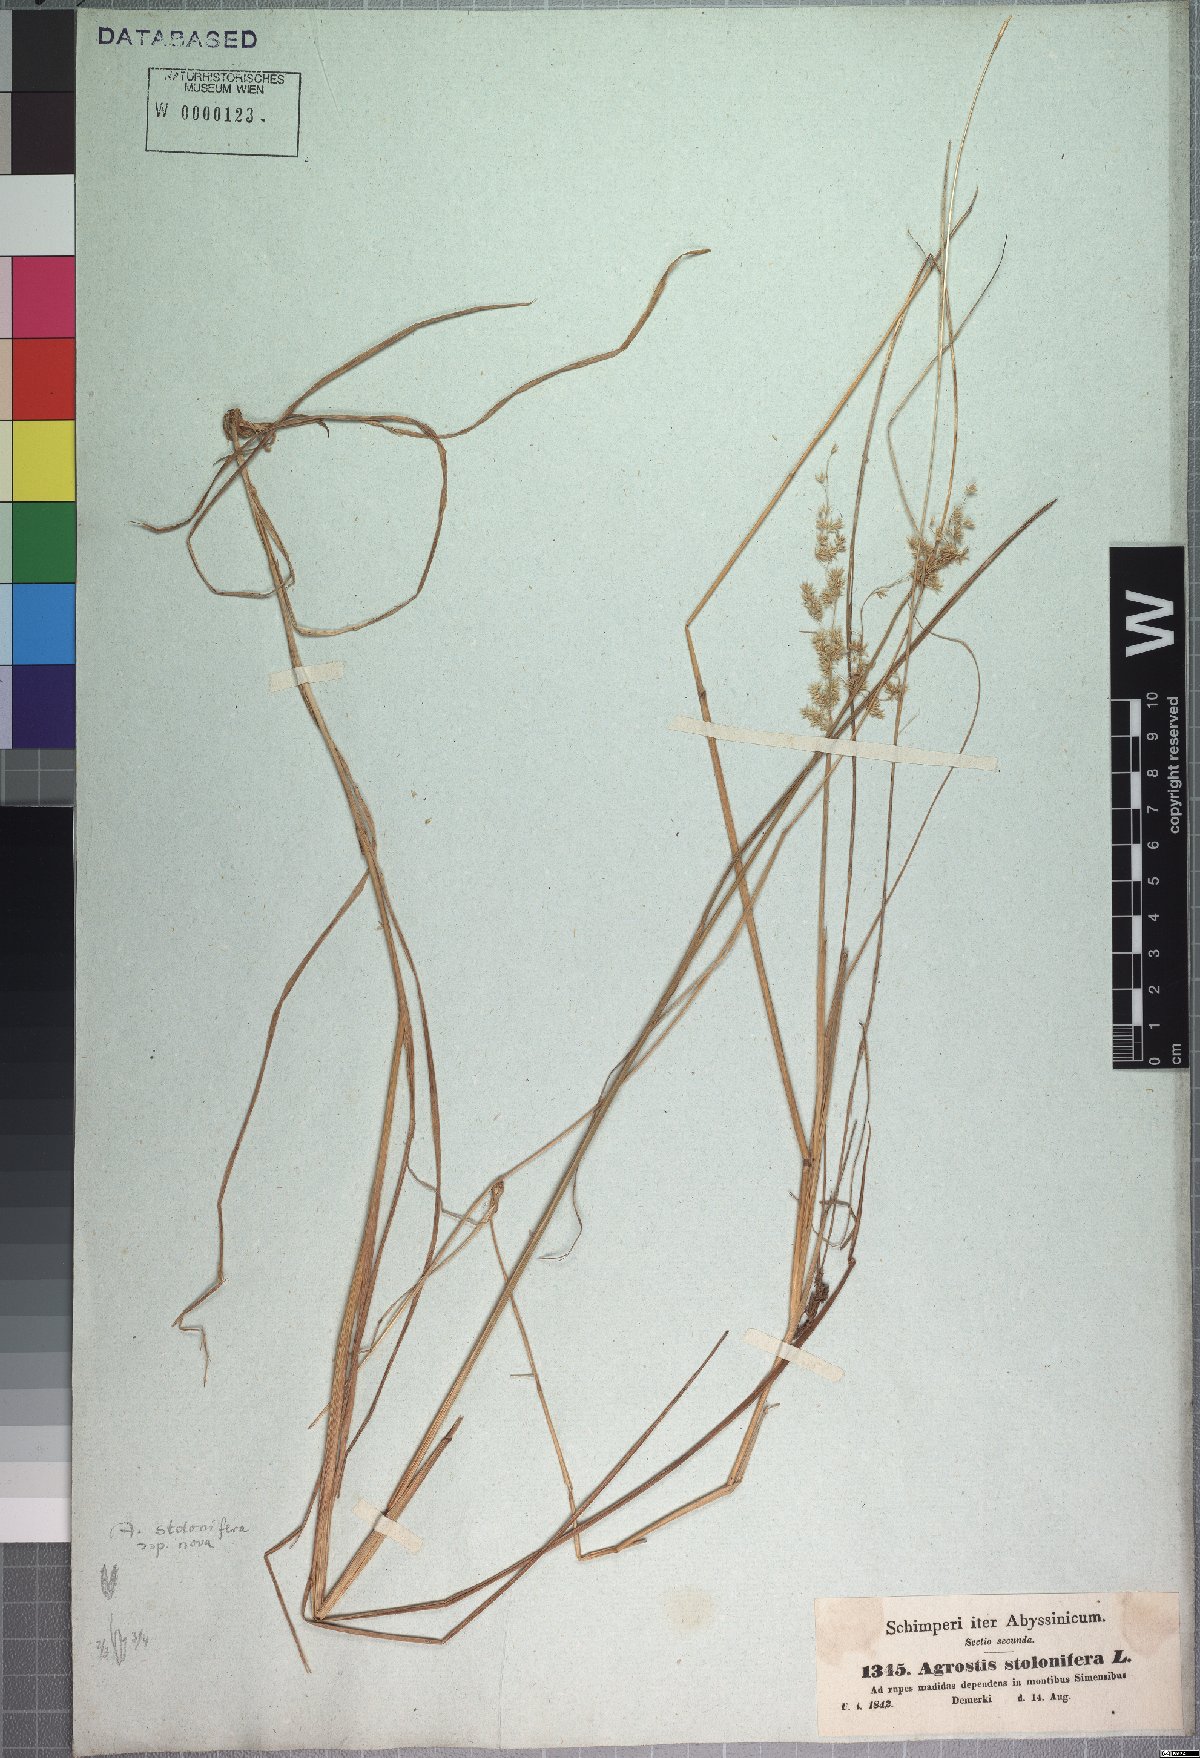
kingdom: Plantae
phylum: Tracheophyta
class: Liliopsida
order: Poales
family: Poaceae
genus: Polypogon
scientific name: Polypogon schimperianus
